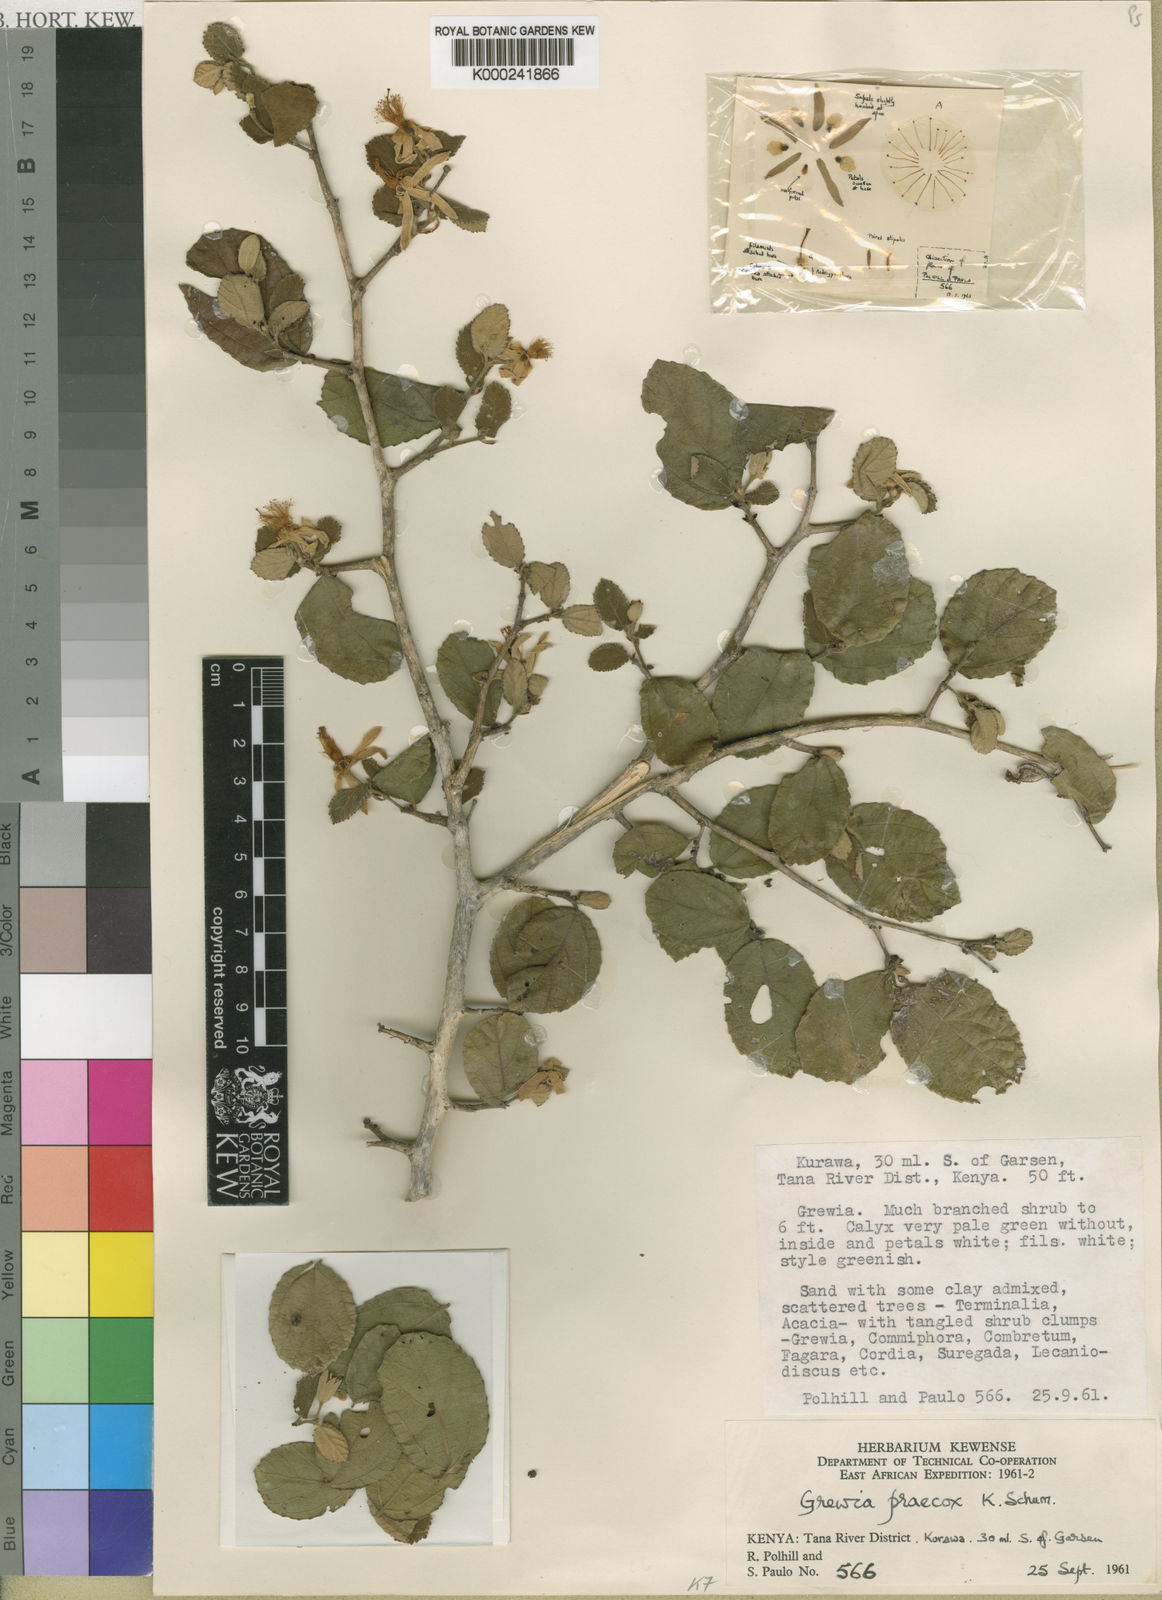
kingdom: Plantae
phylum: Tracheophyta
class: Magnoliopsida
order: Malvales
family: Malvaceae
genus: Grewia
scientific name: Grewia praecox
